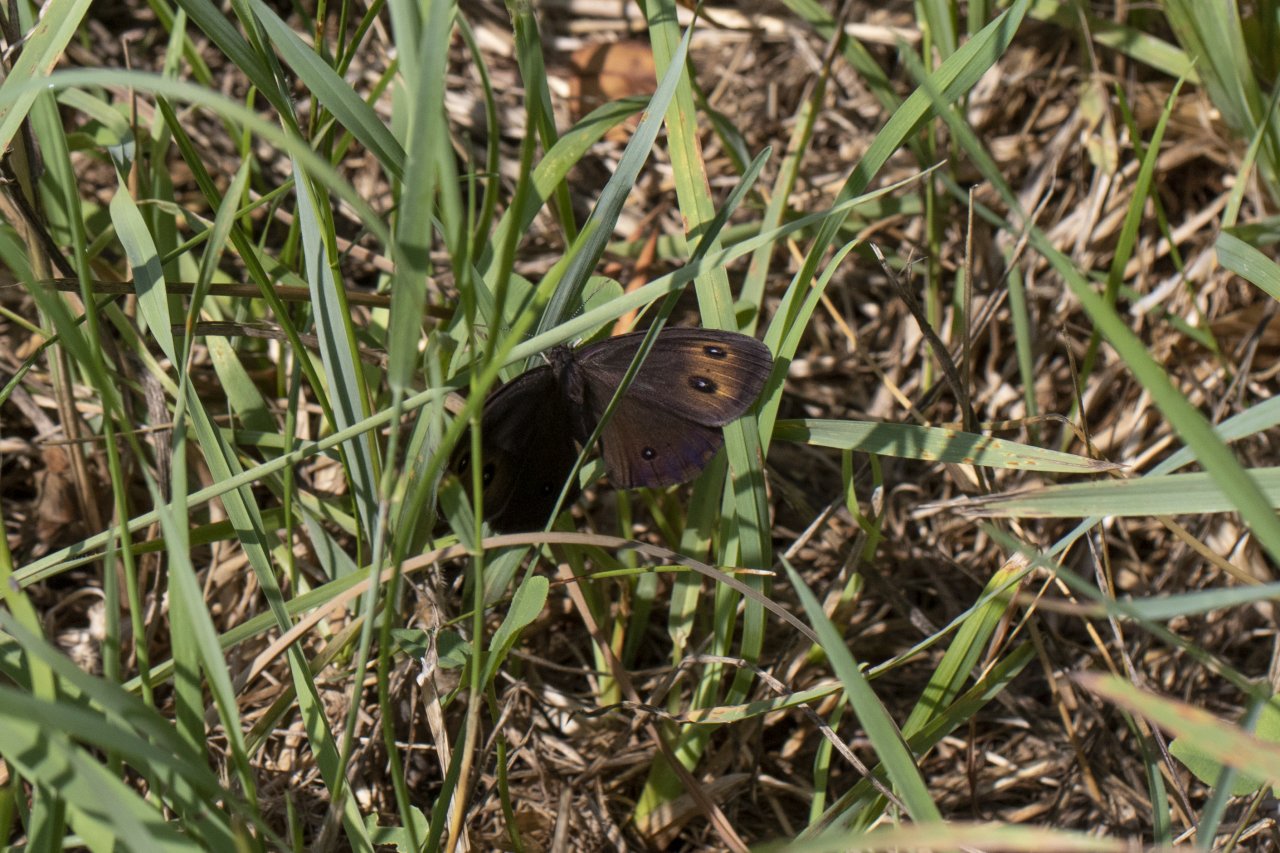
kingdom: Animalia
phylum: Arthropoda
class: Insecta
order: Lepidoptera
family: Nymphalidae
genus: Cercyonis
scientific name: Cercyonis pegala
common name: Common Wood-Nymph
